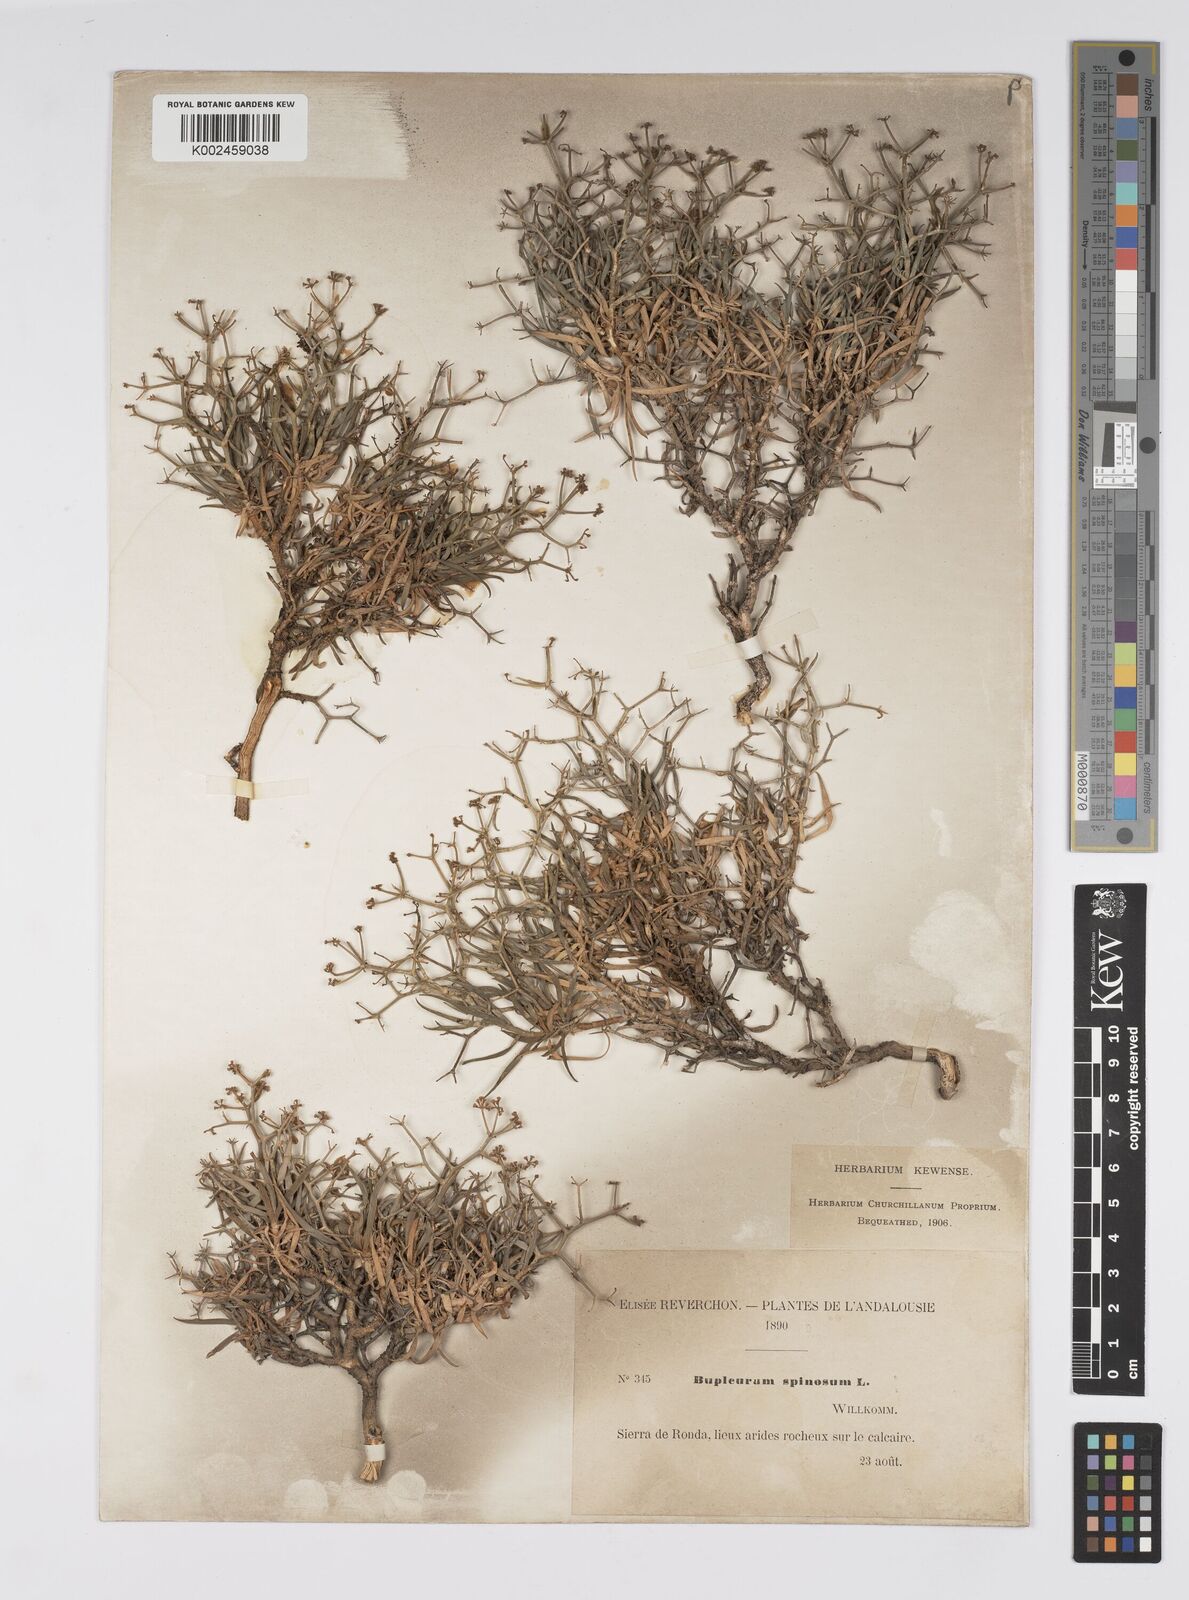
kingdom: Plantae
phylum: Tracheophyta
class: Magnoliopsida
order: Apiales
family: Apiaceae
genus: Bupleurum
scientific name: Bupleurum fruticescens
